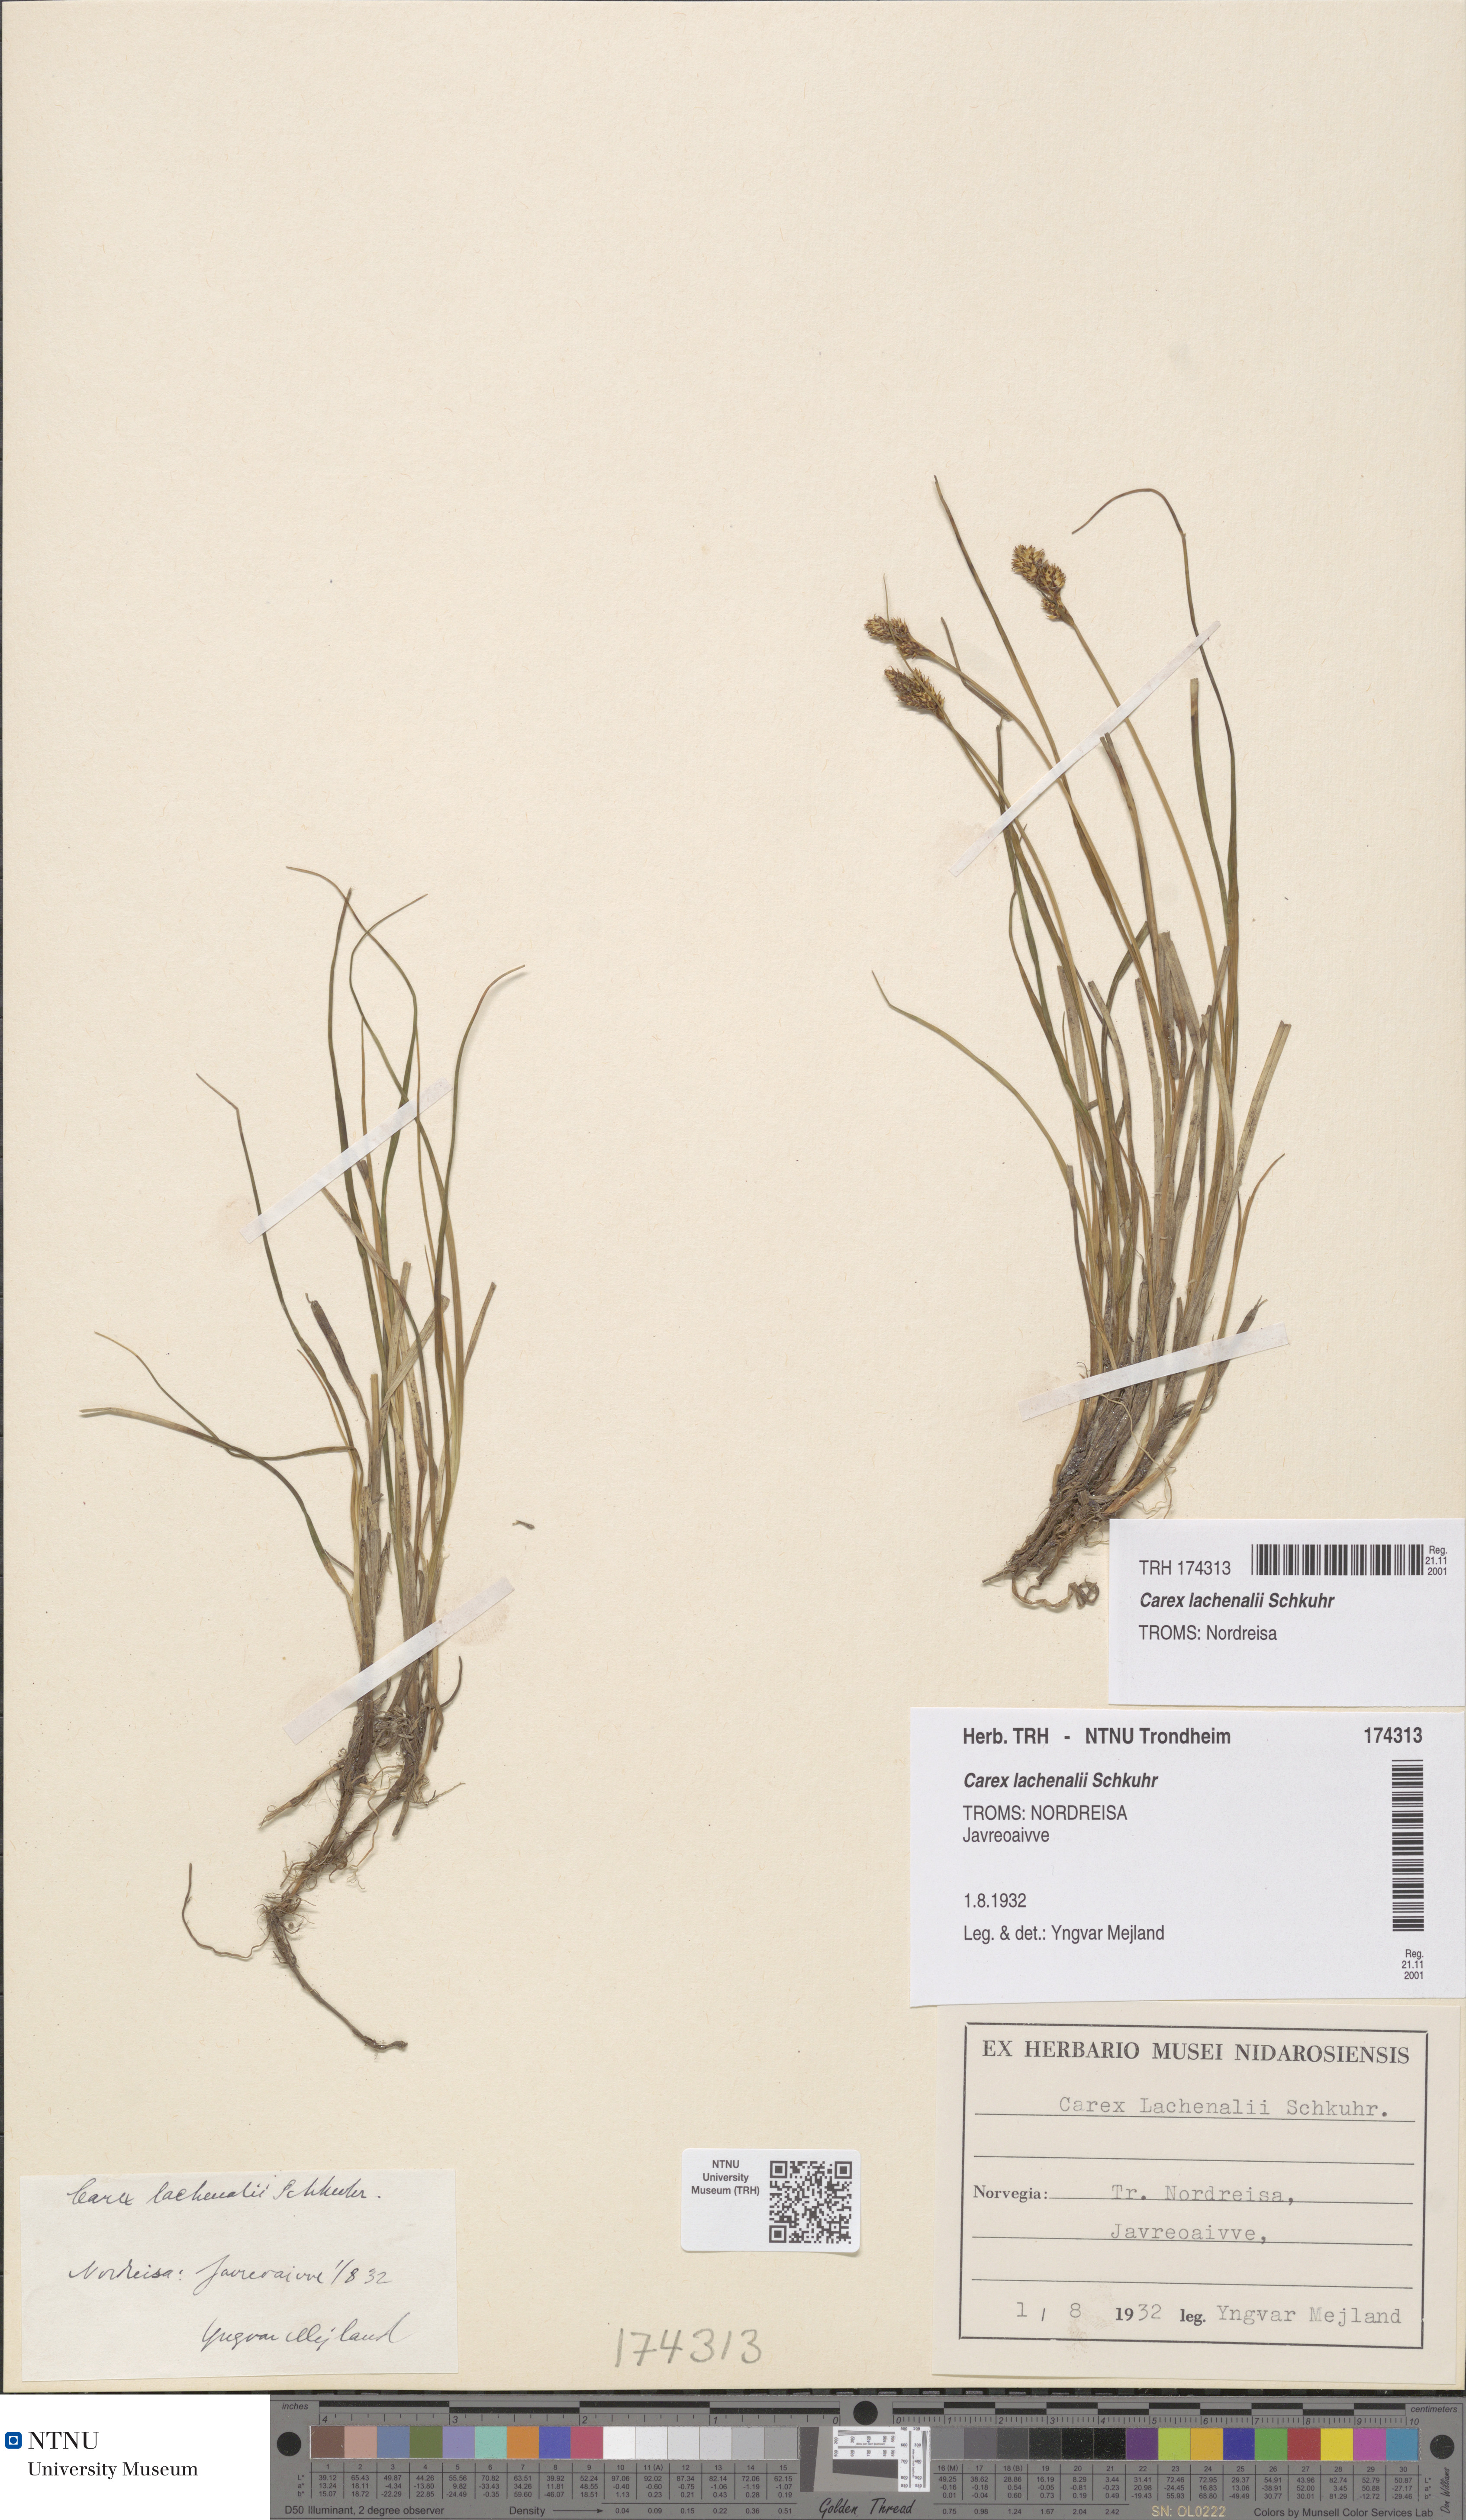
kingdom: Plantae
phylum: Tracheophyta
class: Liliopsida
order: Poales
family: Cyperaceae
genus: Carex
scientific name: Carex lachenalii
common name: Hare's-foot sedge
